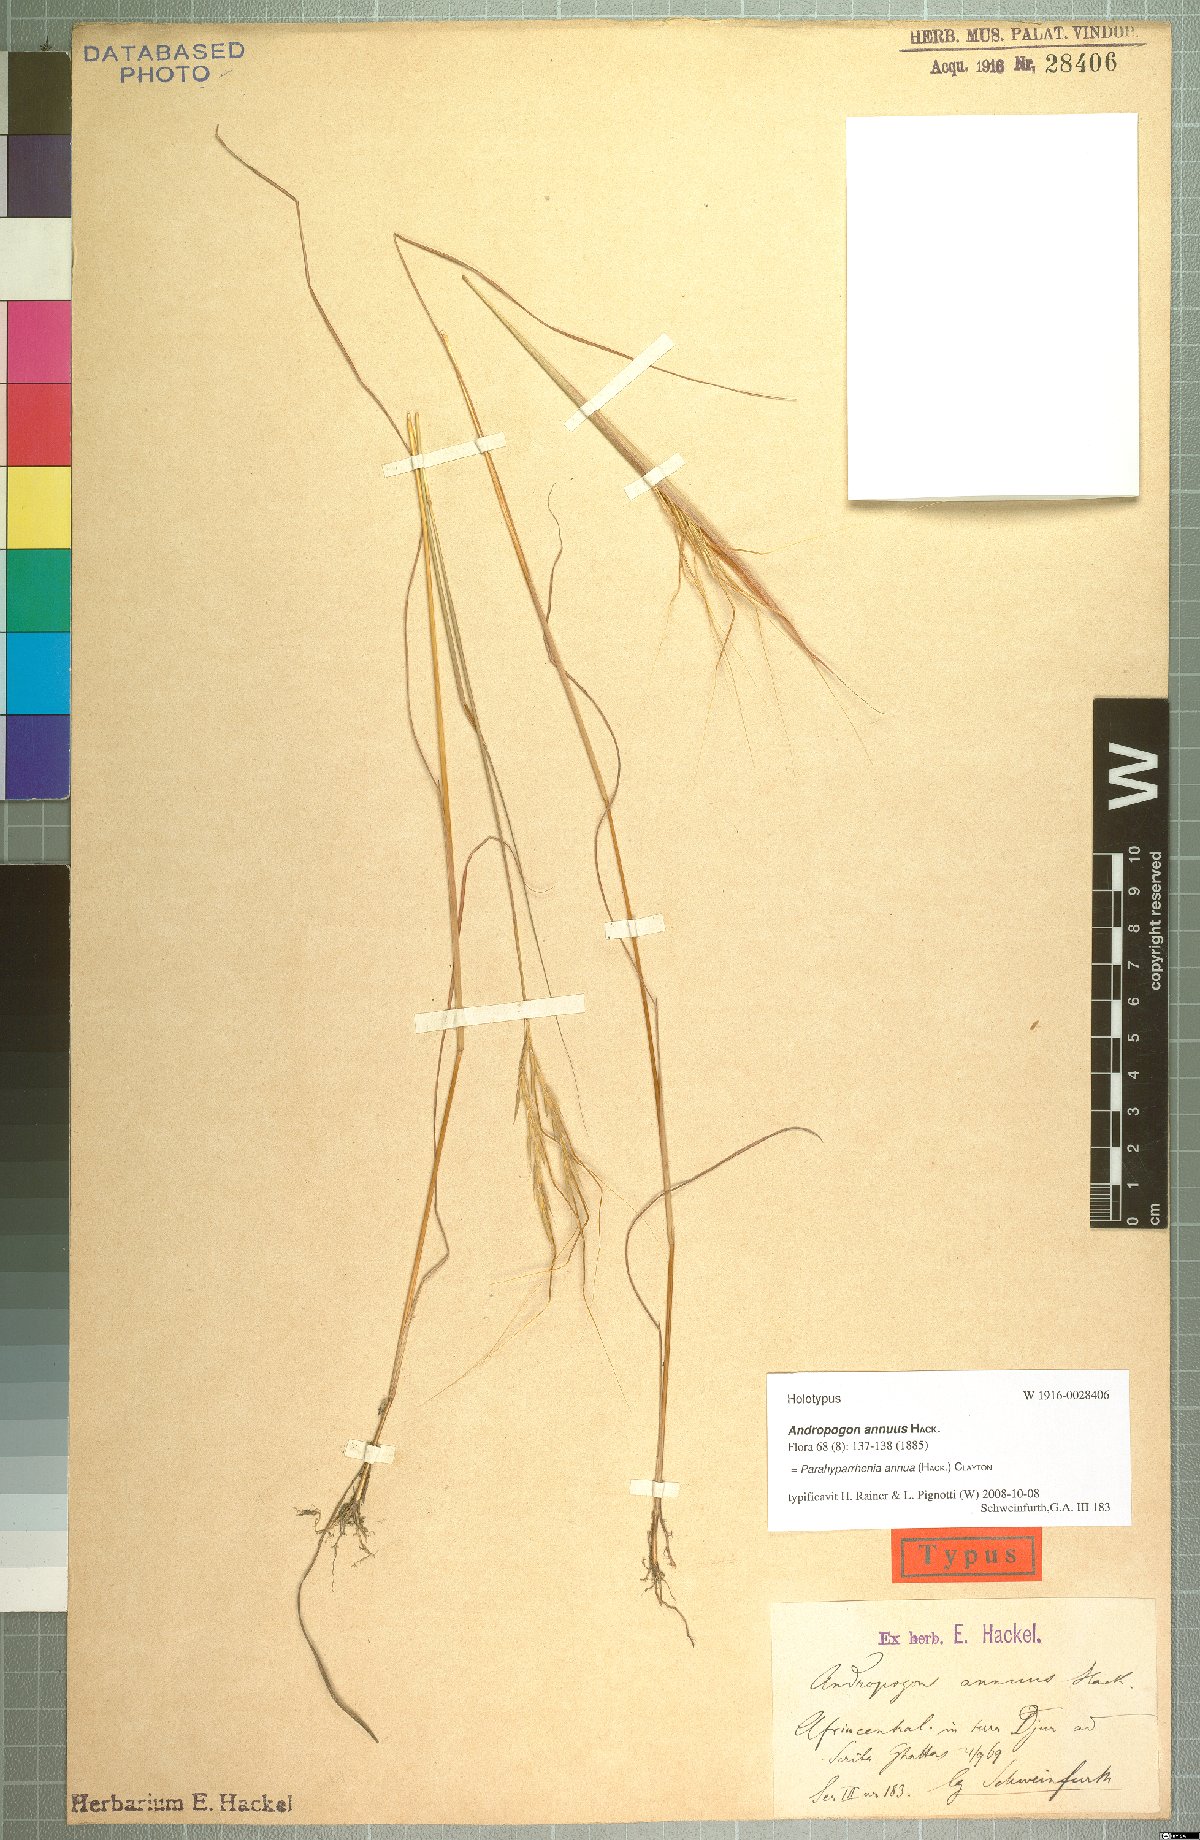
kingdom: Plantae
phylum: Tracheophyta
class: Liliopsida
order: Poales
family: Poaceae
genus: Parahyparrhenia
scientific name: Parahyparrhenia annua
